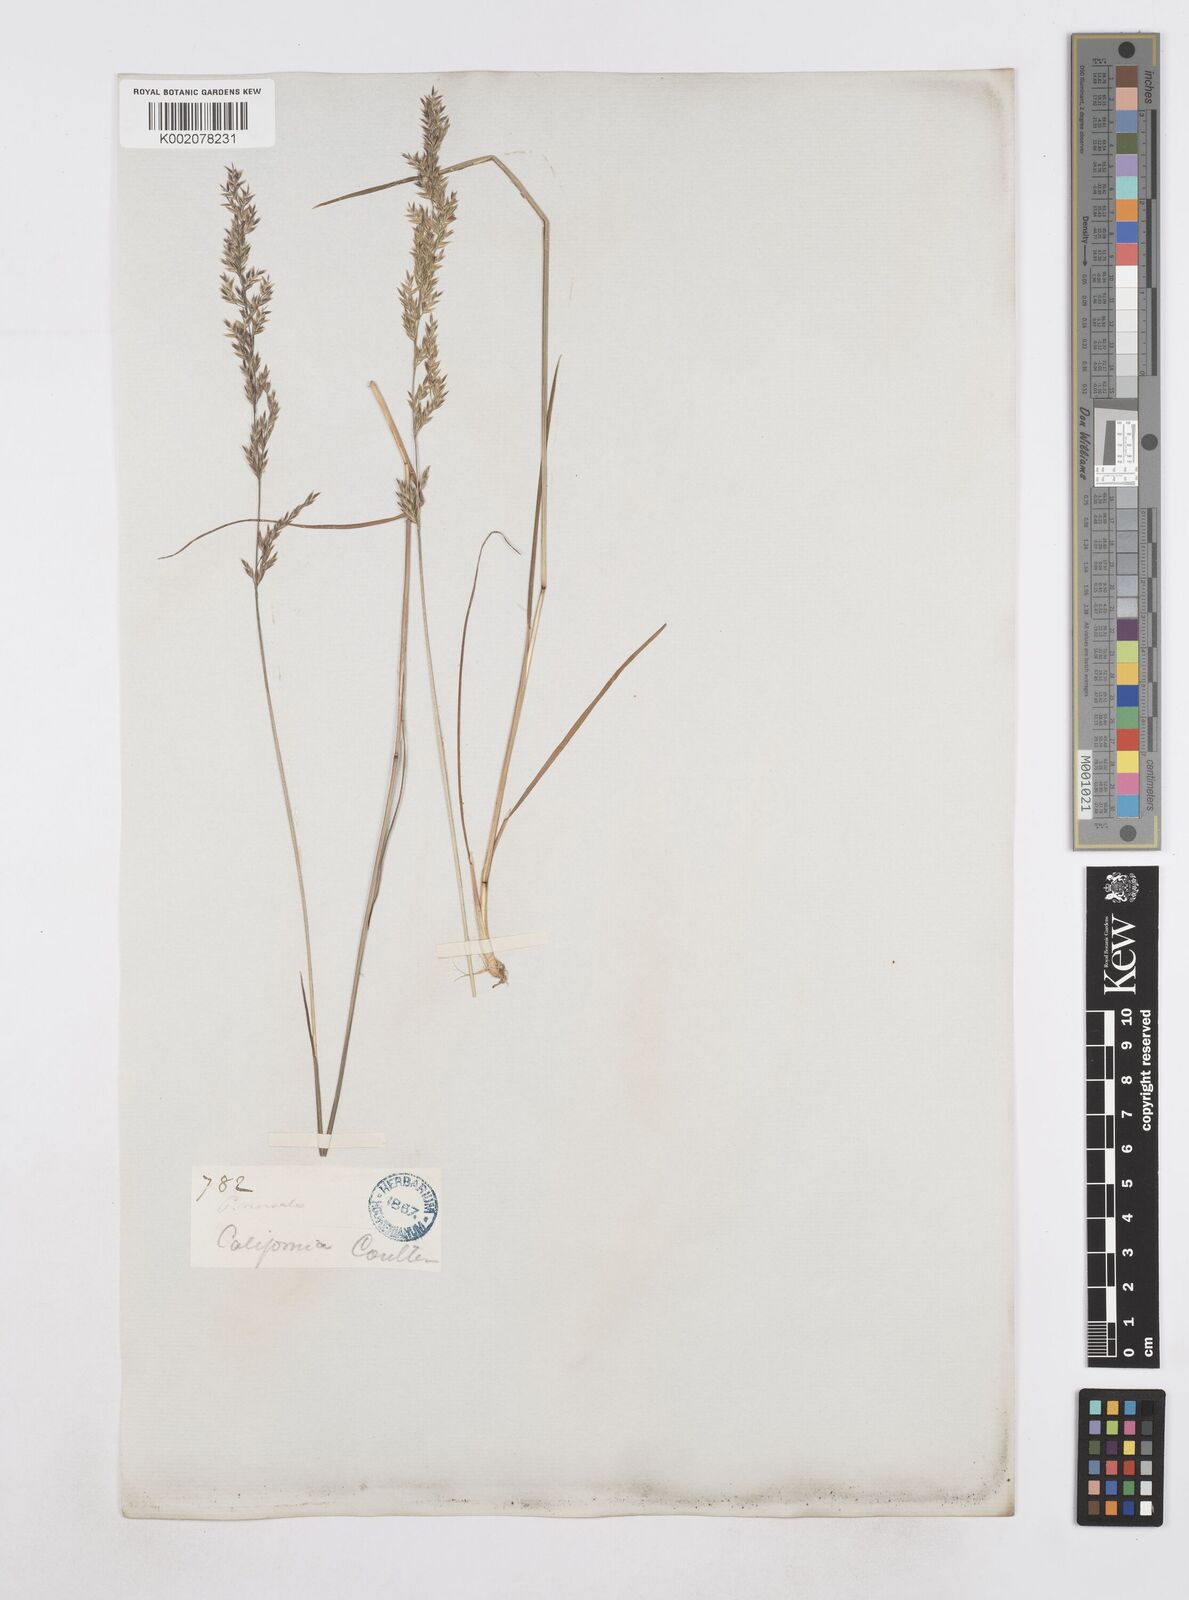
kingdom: Plantae
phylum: Tracheophyta
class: Liliopsida
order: Poales
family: Poaceae
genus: Poa
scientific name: Poa
